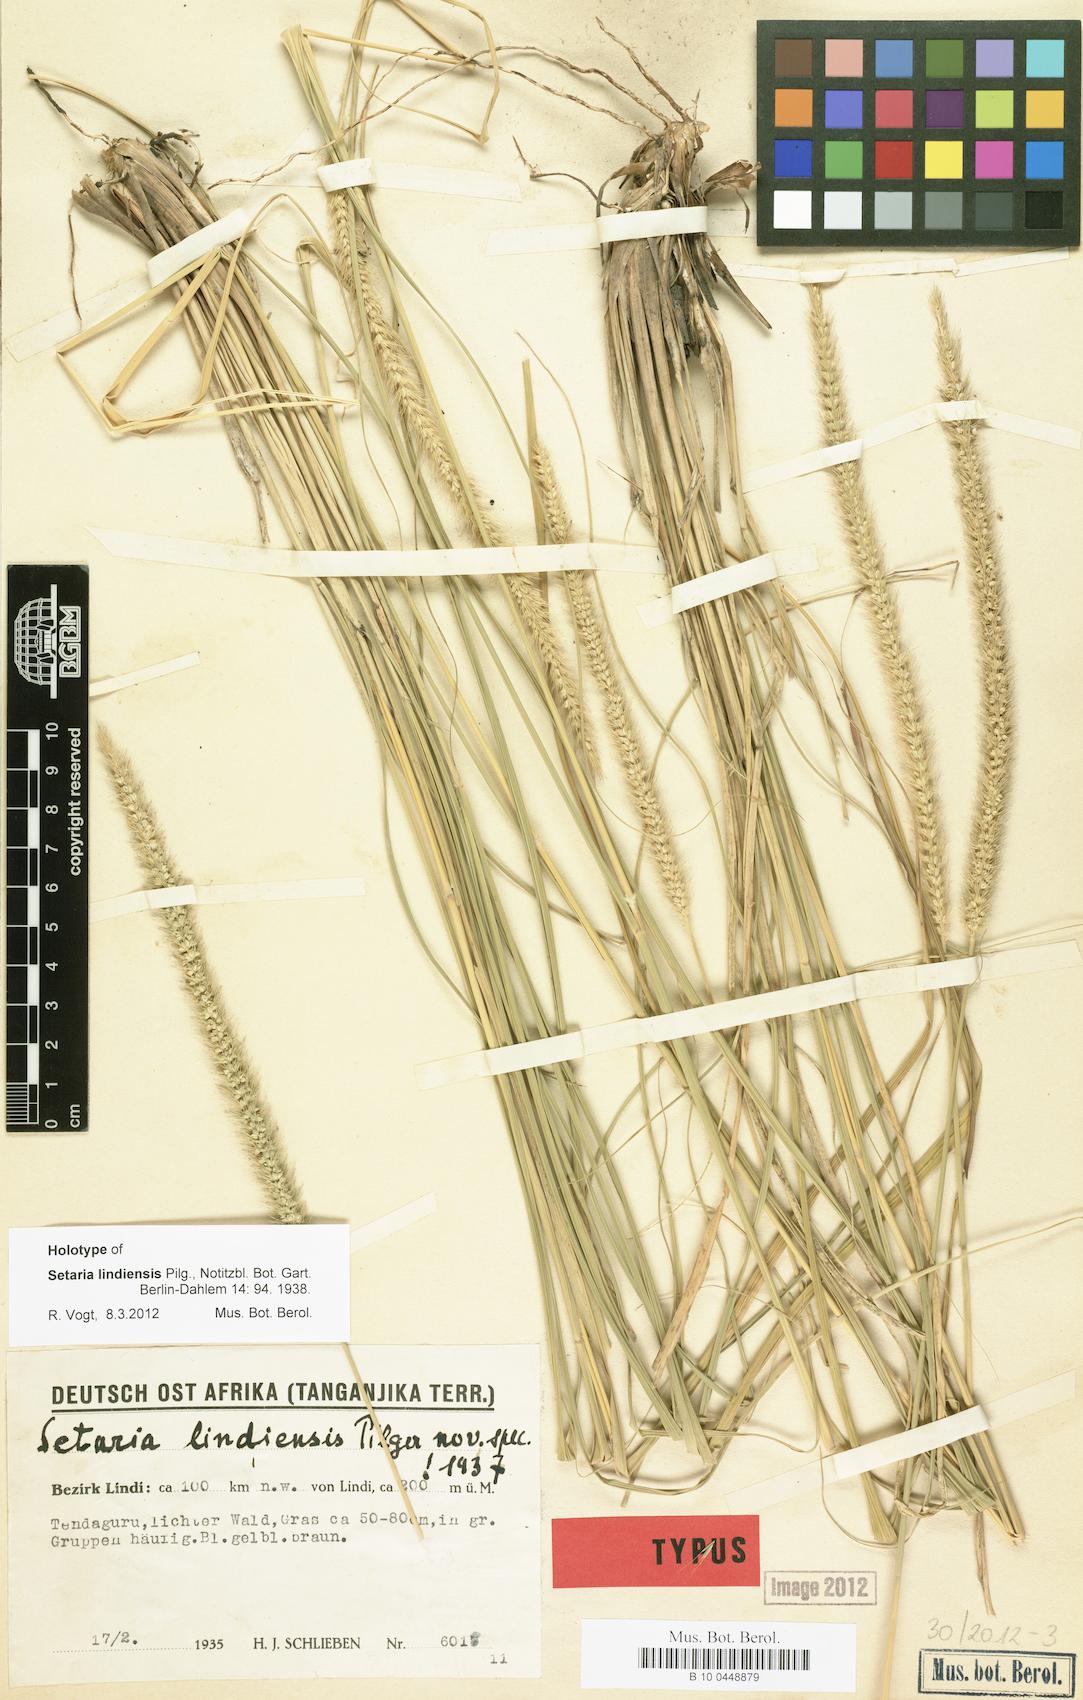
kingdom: Plantae
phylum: Tracheophyta
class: Liliopsida
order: Poales
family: Poaceae
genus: Setaria
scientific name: Setaria incrassata
